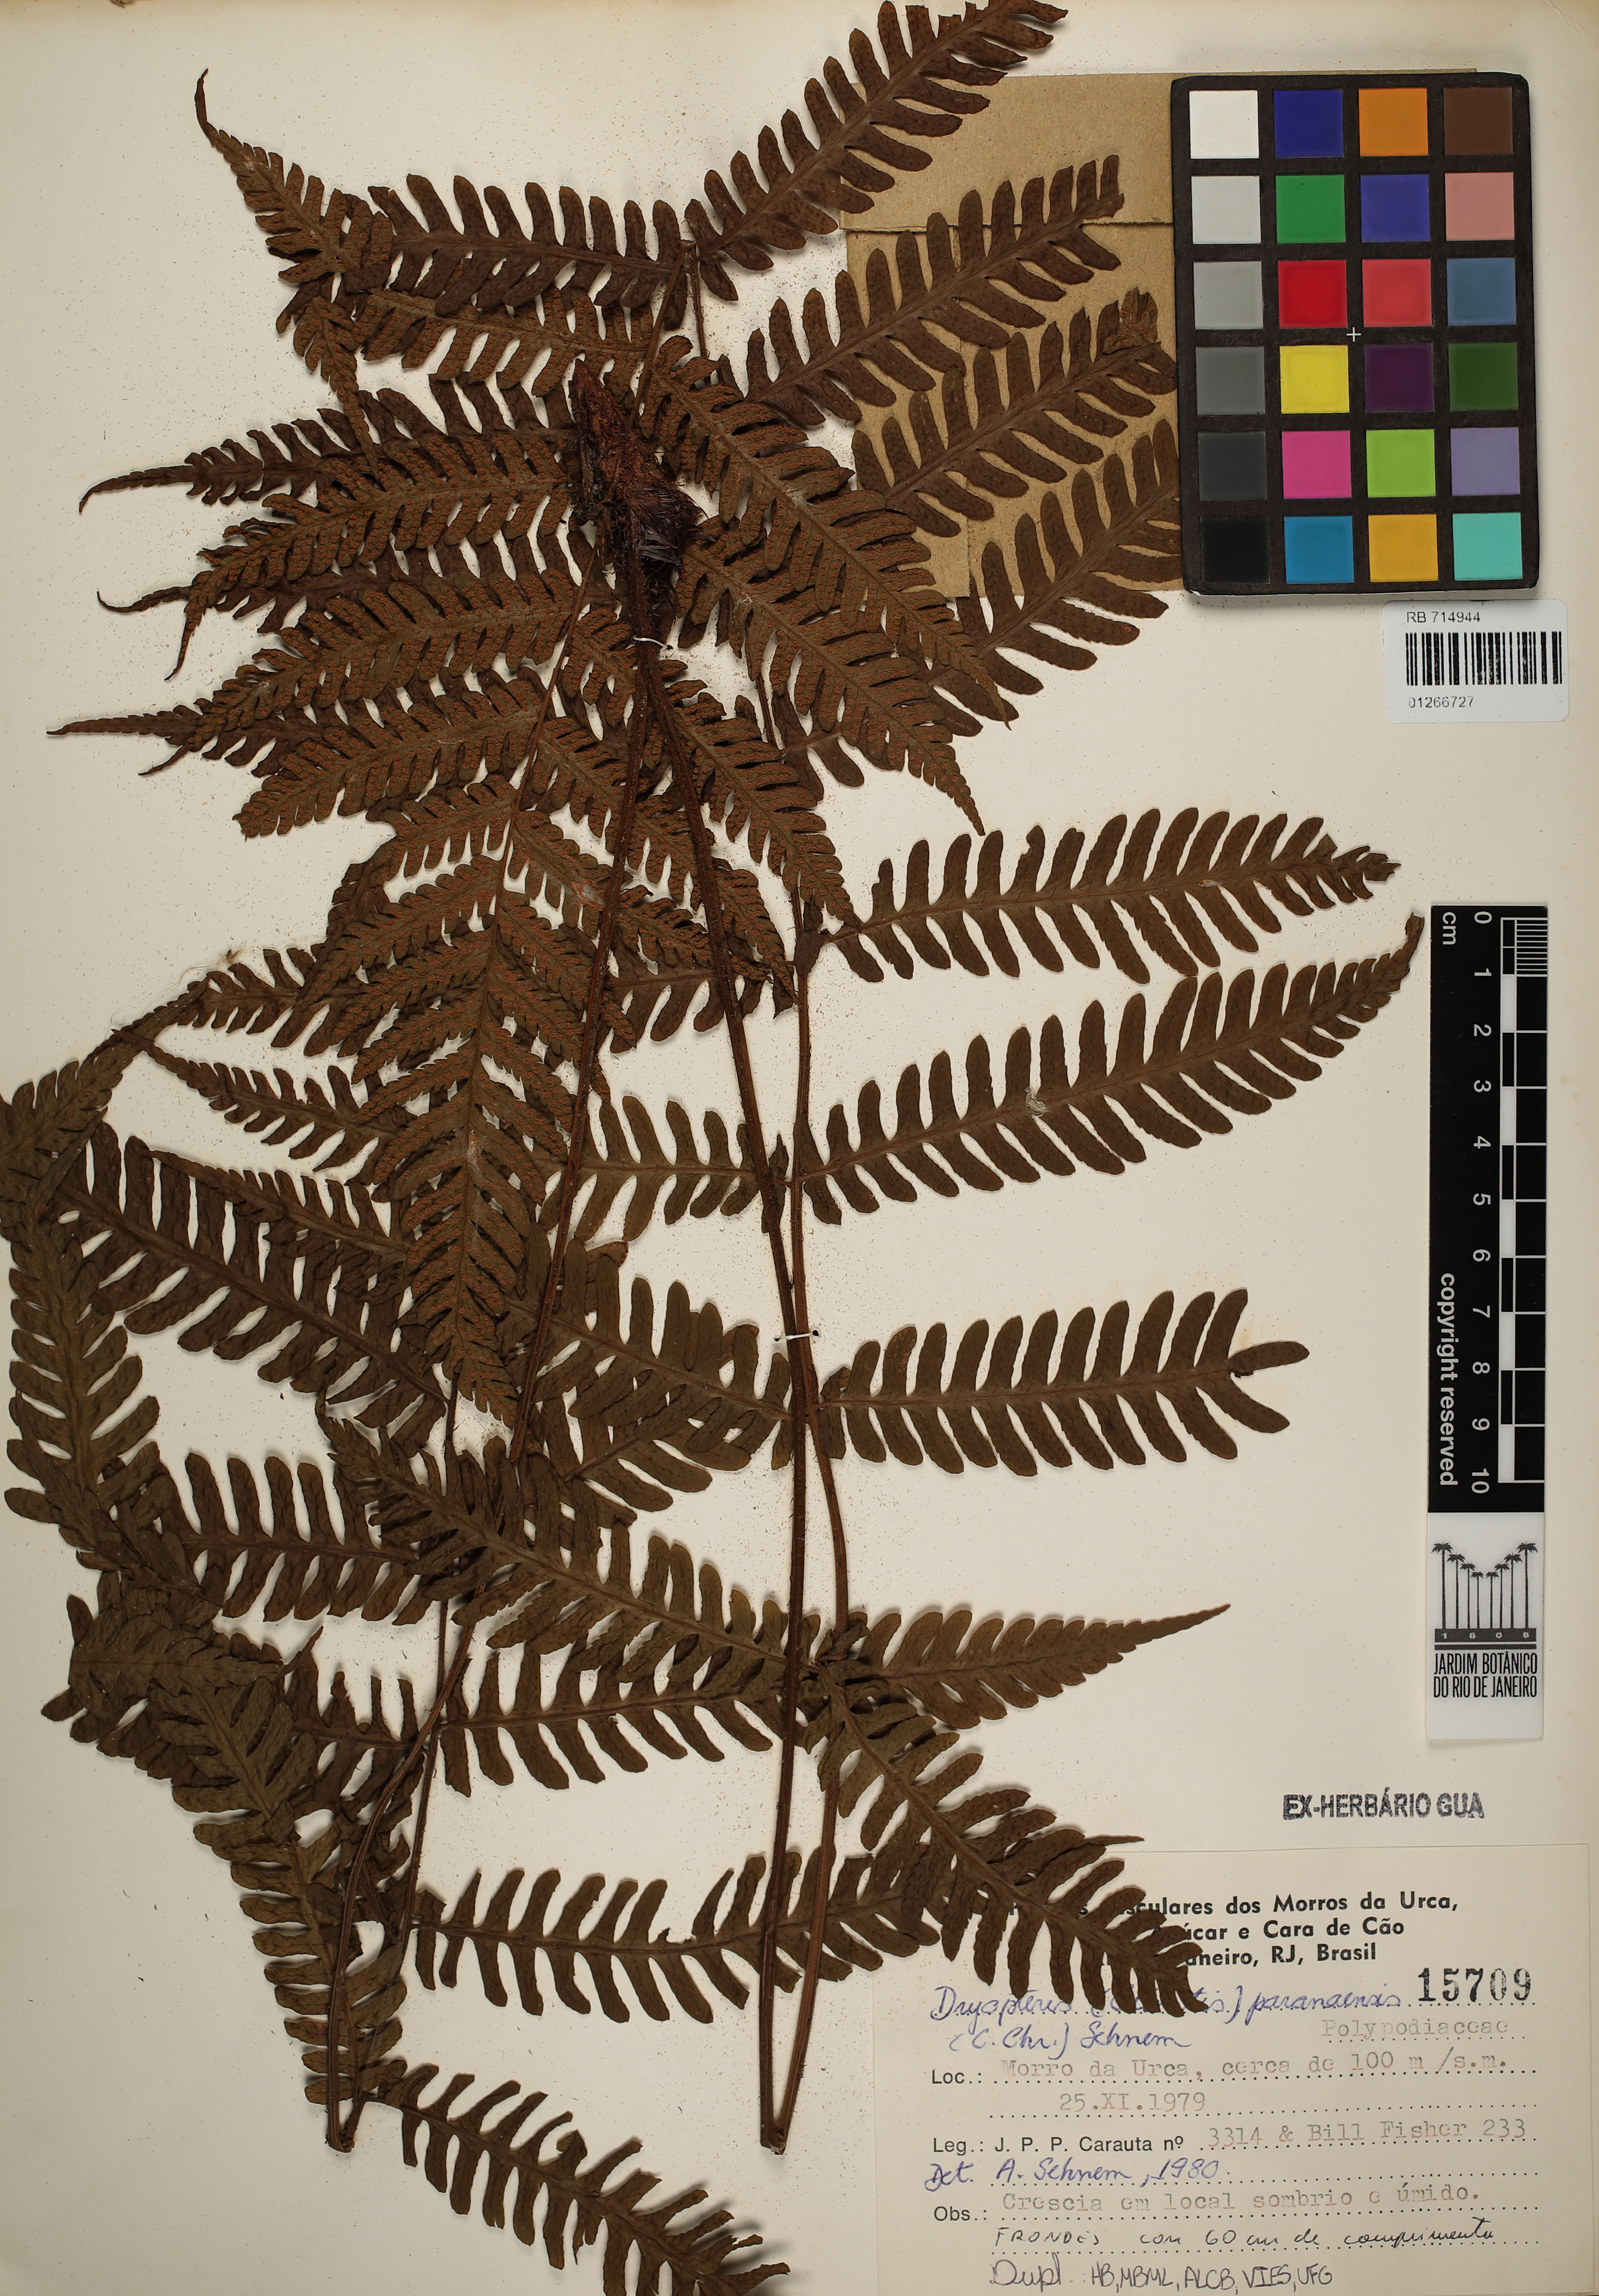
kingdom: Plantae
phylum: Tracheophyta
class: Polypodiopsida
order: Polypodiales
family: Dryopteridaceae
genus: Ctenitis
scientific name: Ctenitis paranaensis
